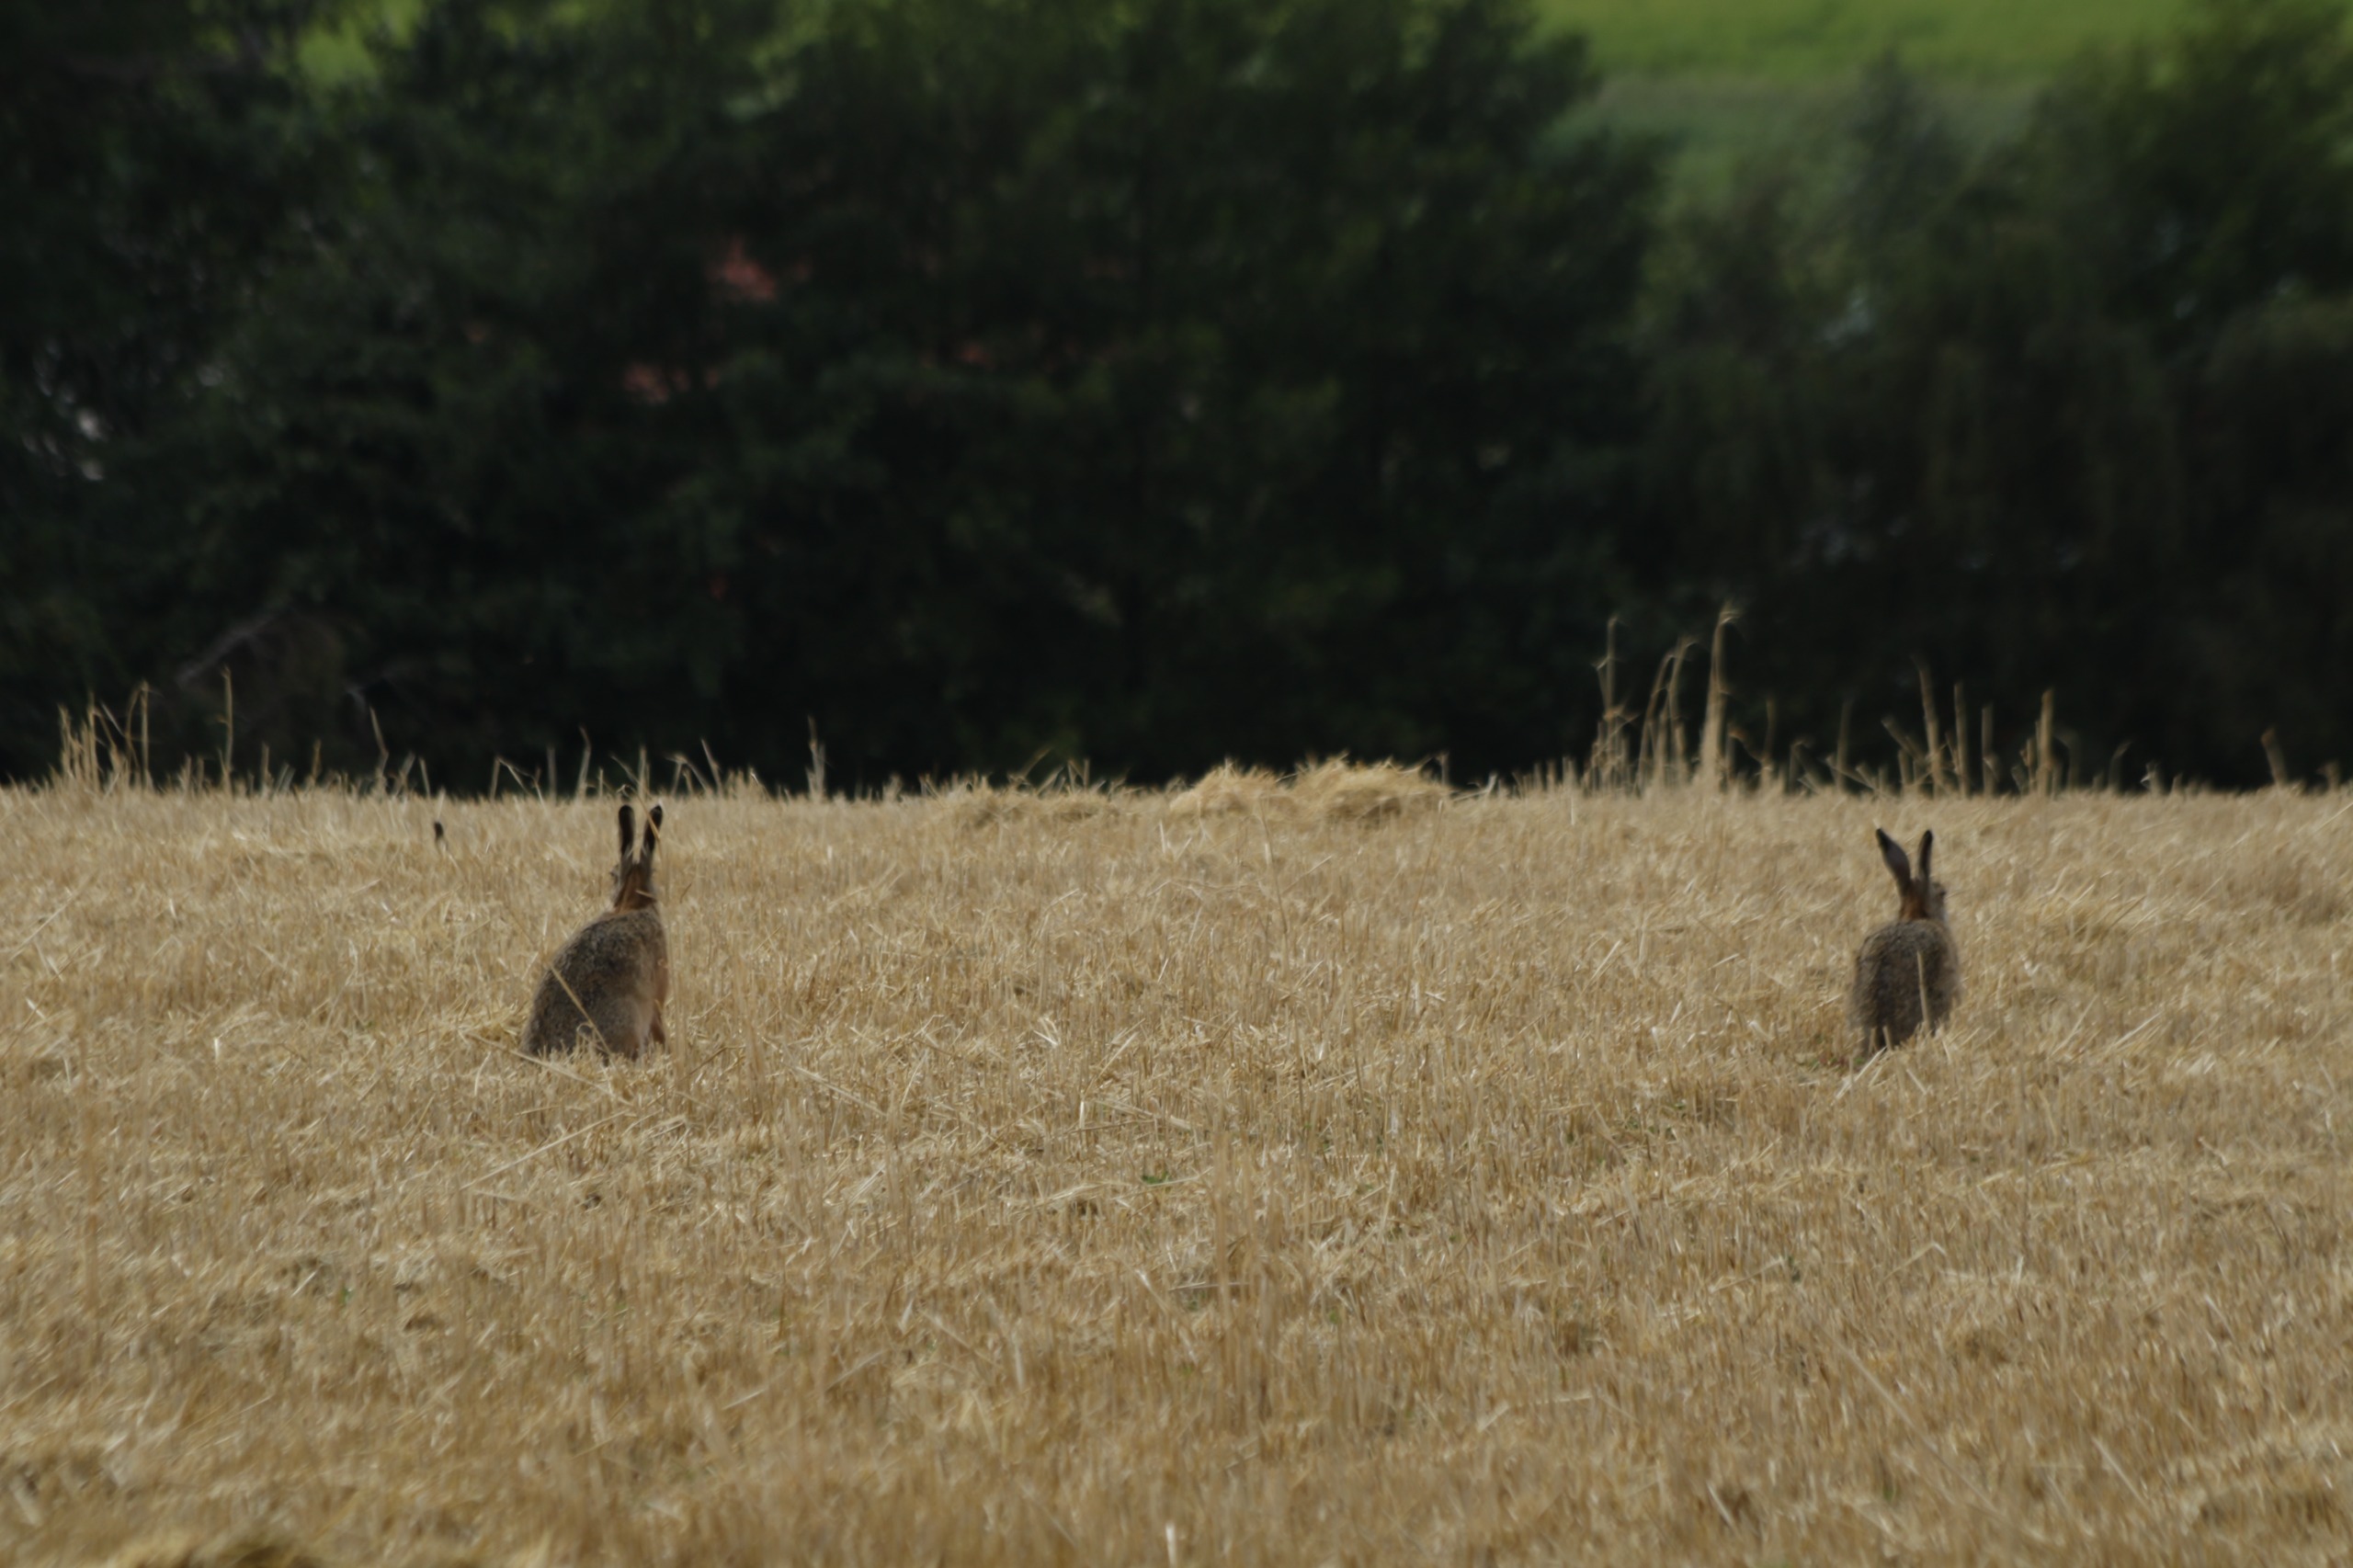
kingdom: Animalia
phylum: Chordata
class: Mammalia
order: Lagomorpha
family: Leporidae
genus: Lepus
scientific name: Lepus europaeus
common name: Hare
